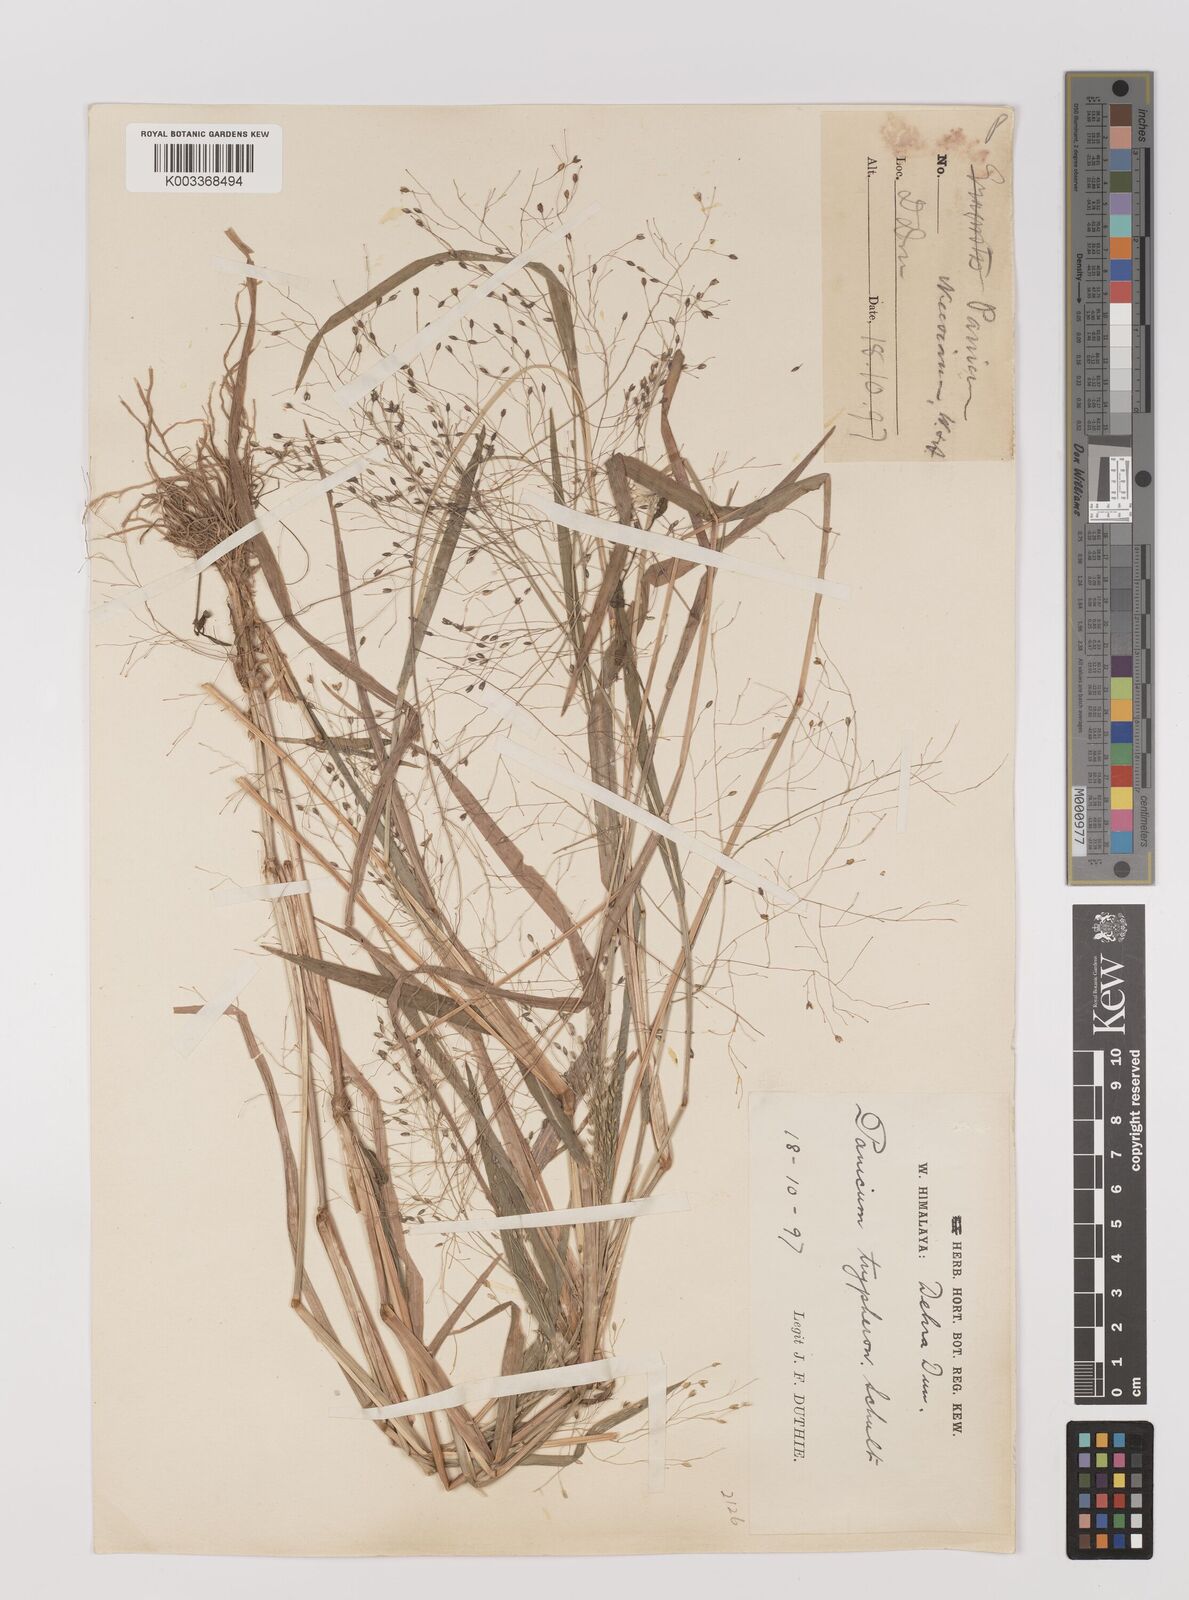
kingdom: Plantae
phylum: Tracheophyta
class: Liliopsida
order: Poales
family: Poaceae
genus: Panicum
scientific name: Panicum sumatrense
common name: Little millet
